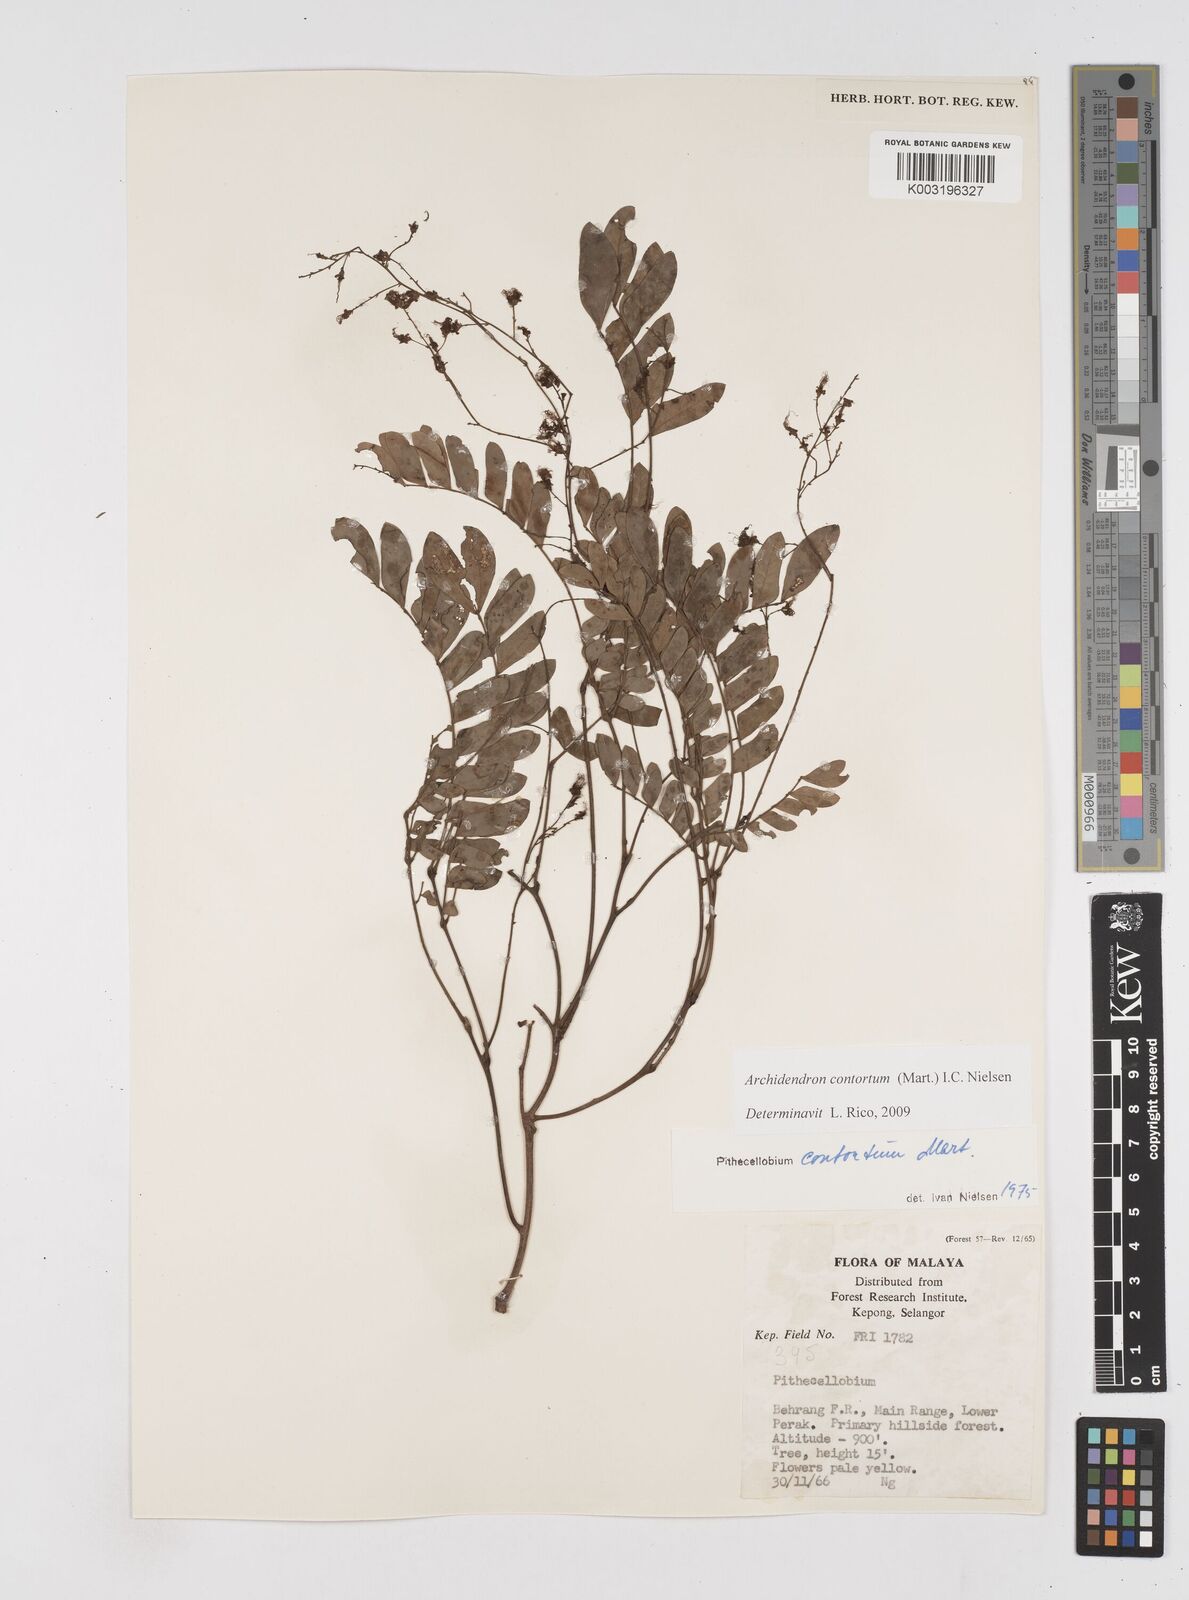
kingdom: Plantae
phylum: Tracheophyta
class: Magnoliopsida
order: Fabales
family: Fabaceae
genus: Archidendron
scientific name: Archidendron contortum
